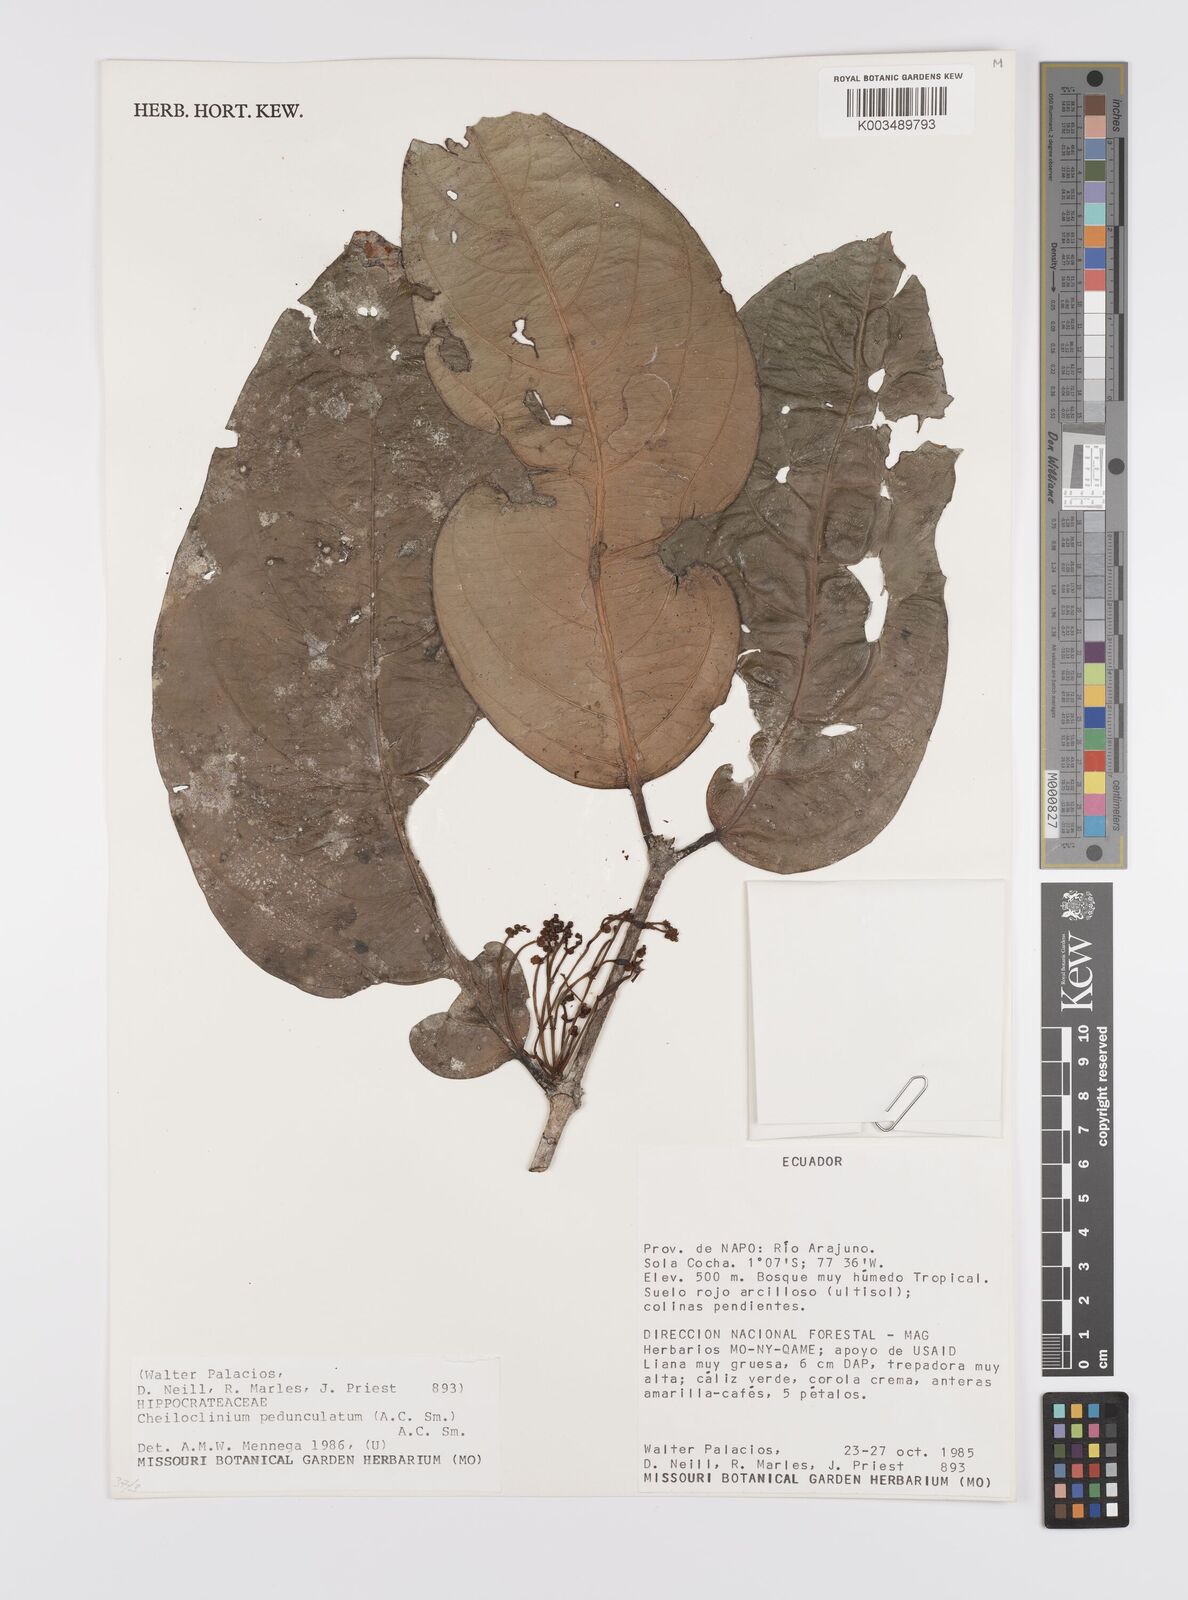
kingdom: Plantae
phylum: Tracheophyta
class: Magnoliopsida
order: Celastrales
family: Celastraceae
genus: Cheiloclinium
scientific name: Cheiloclinium pedunculatum
